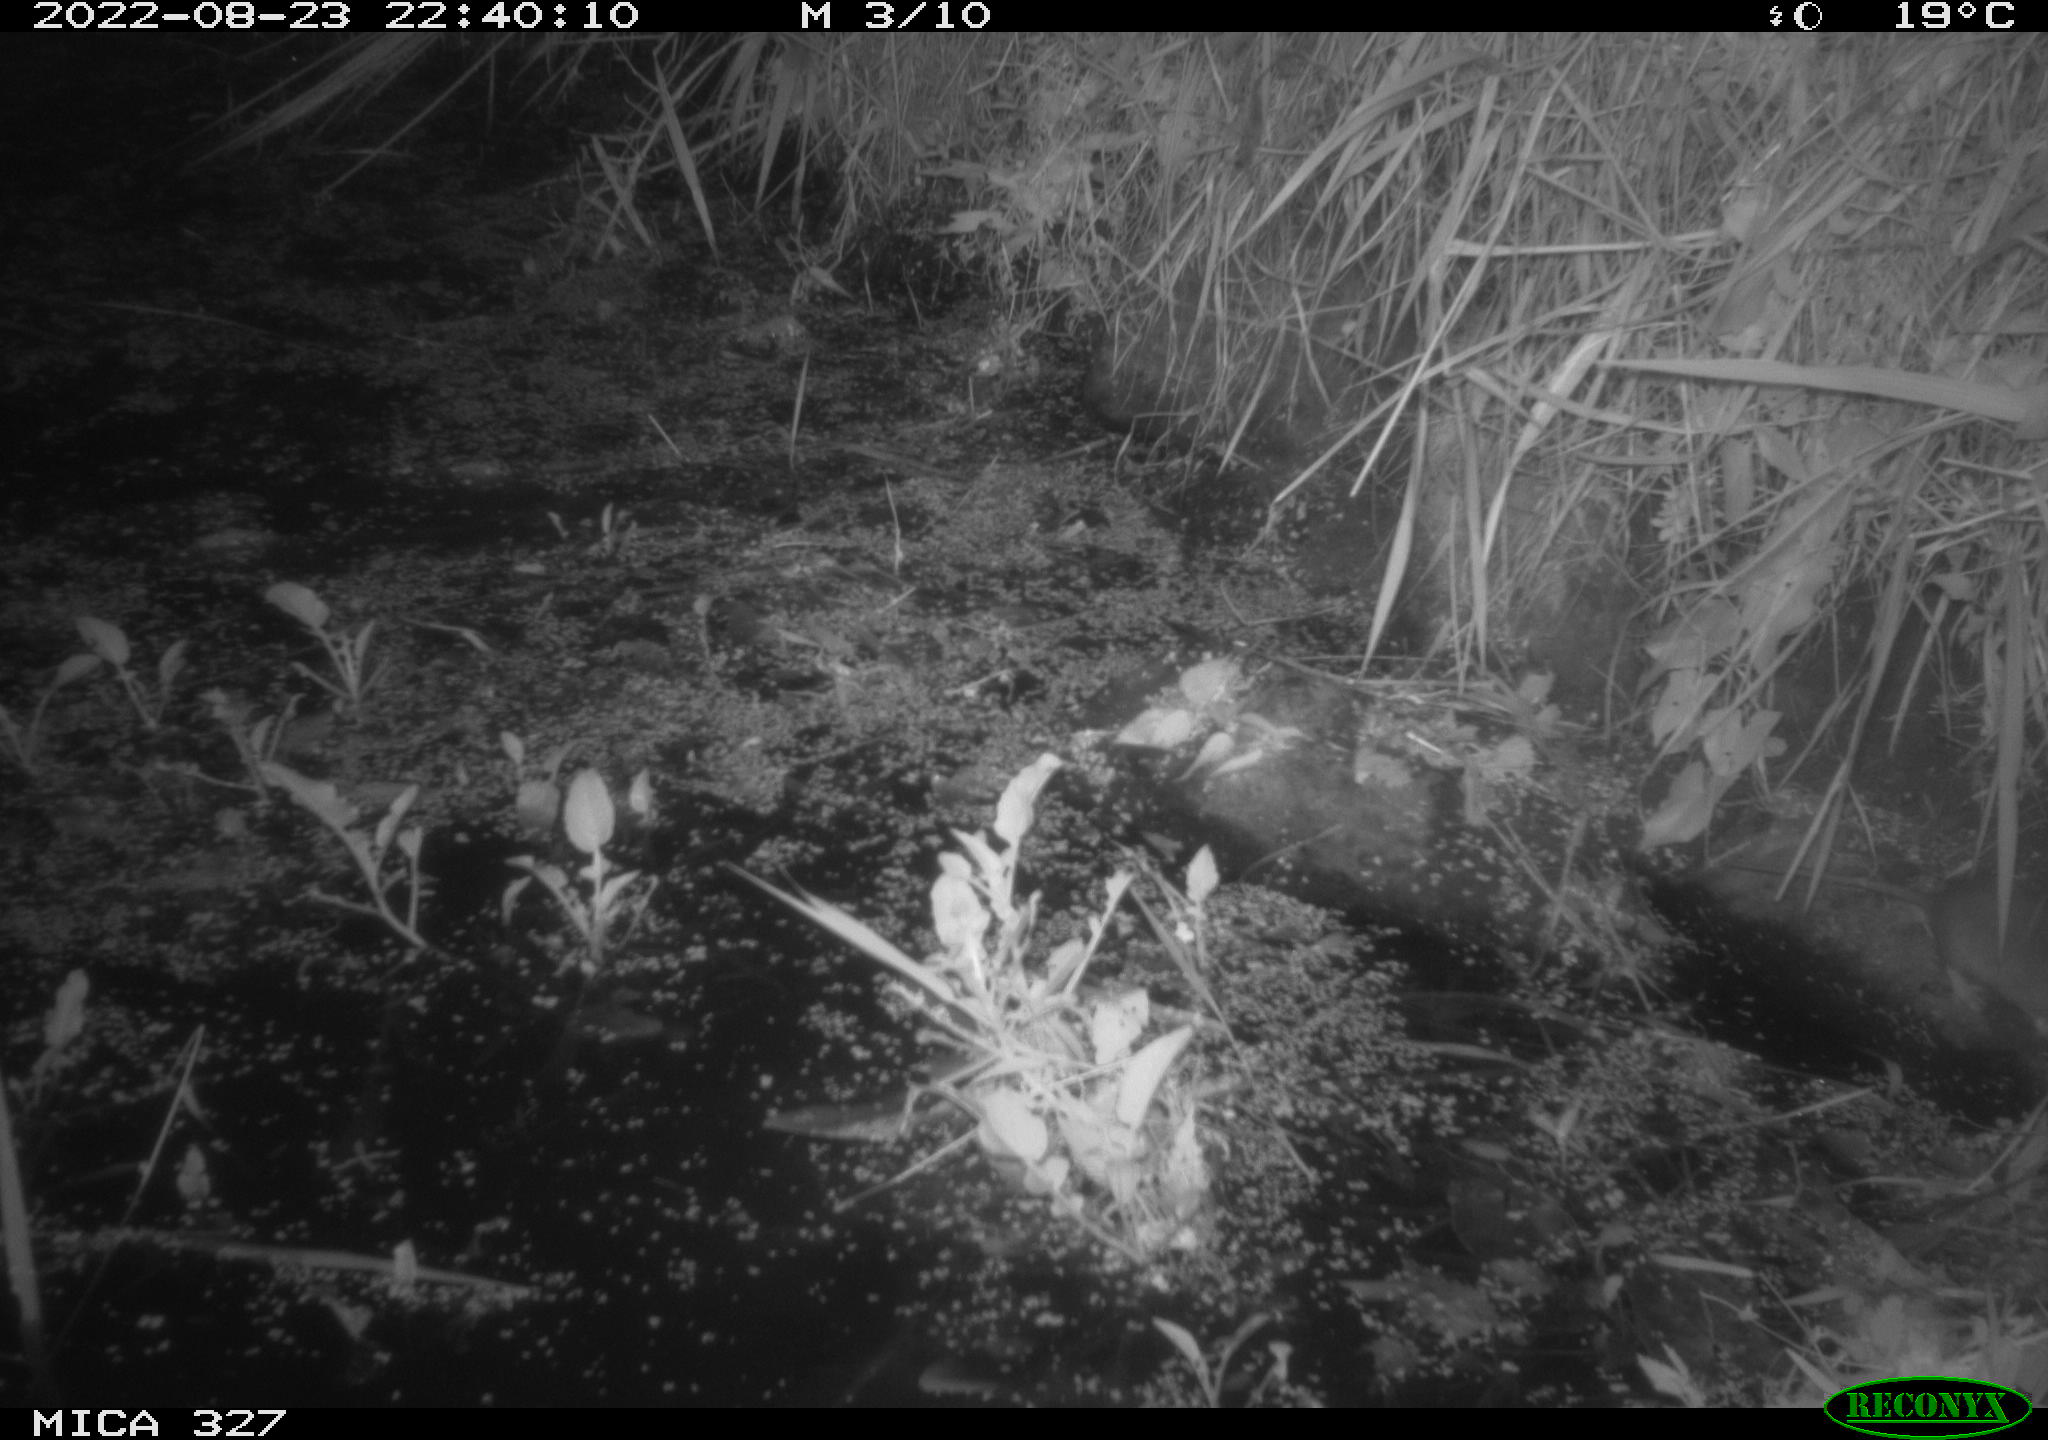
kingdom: Animalia
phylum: Chordata
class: Mammalia
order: Rodentia
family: Muridae
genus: Rattus
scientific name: Rattus norvegicus
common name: Brown rat
